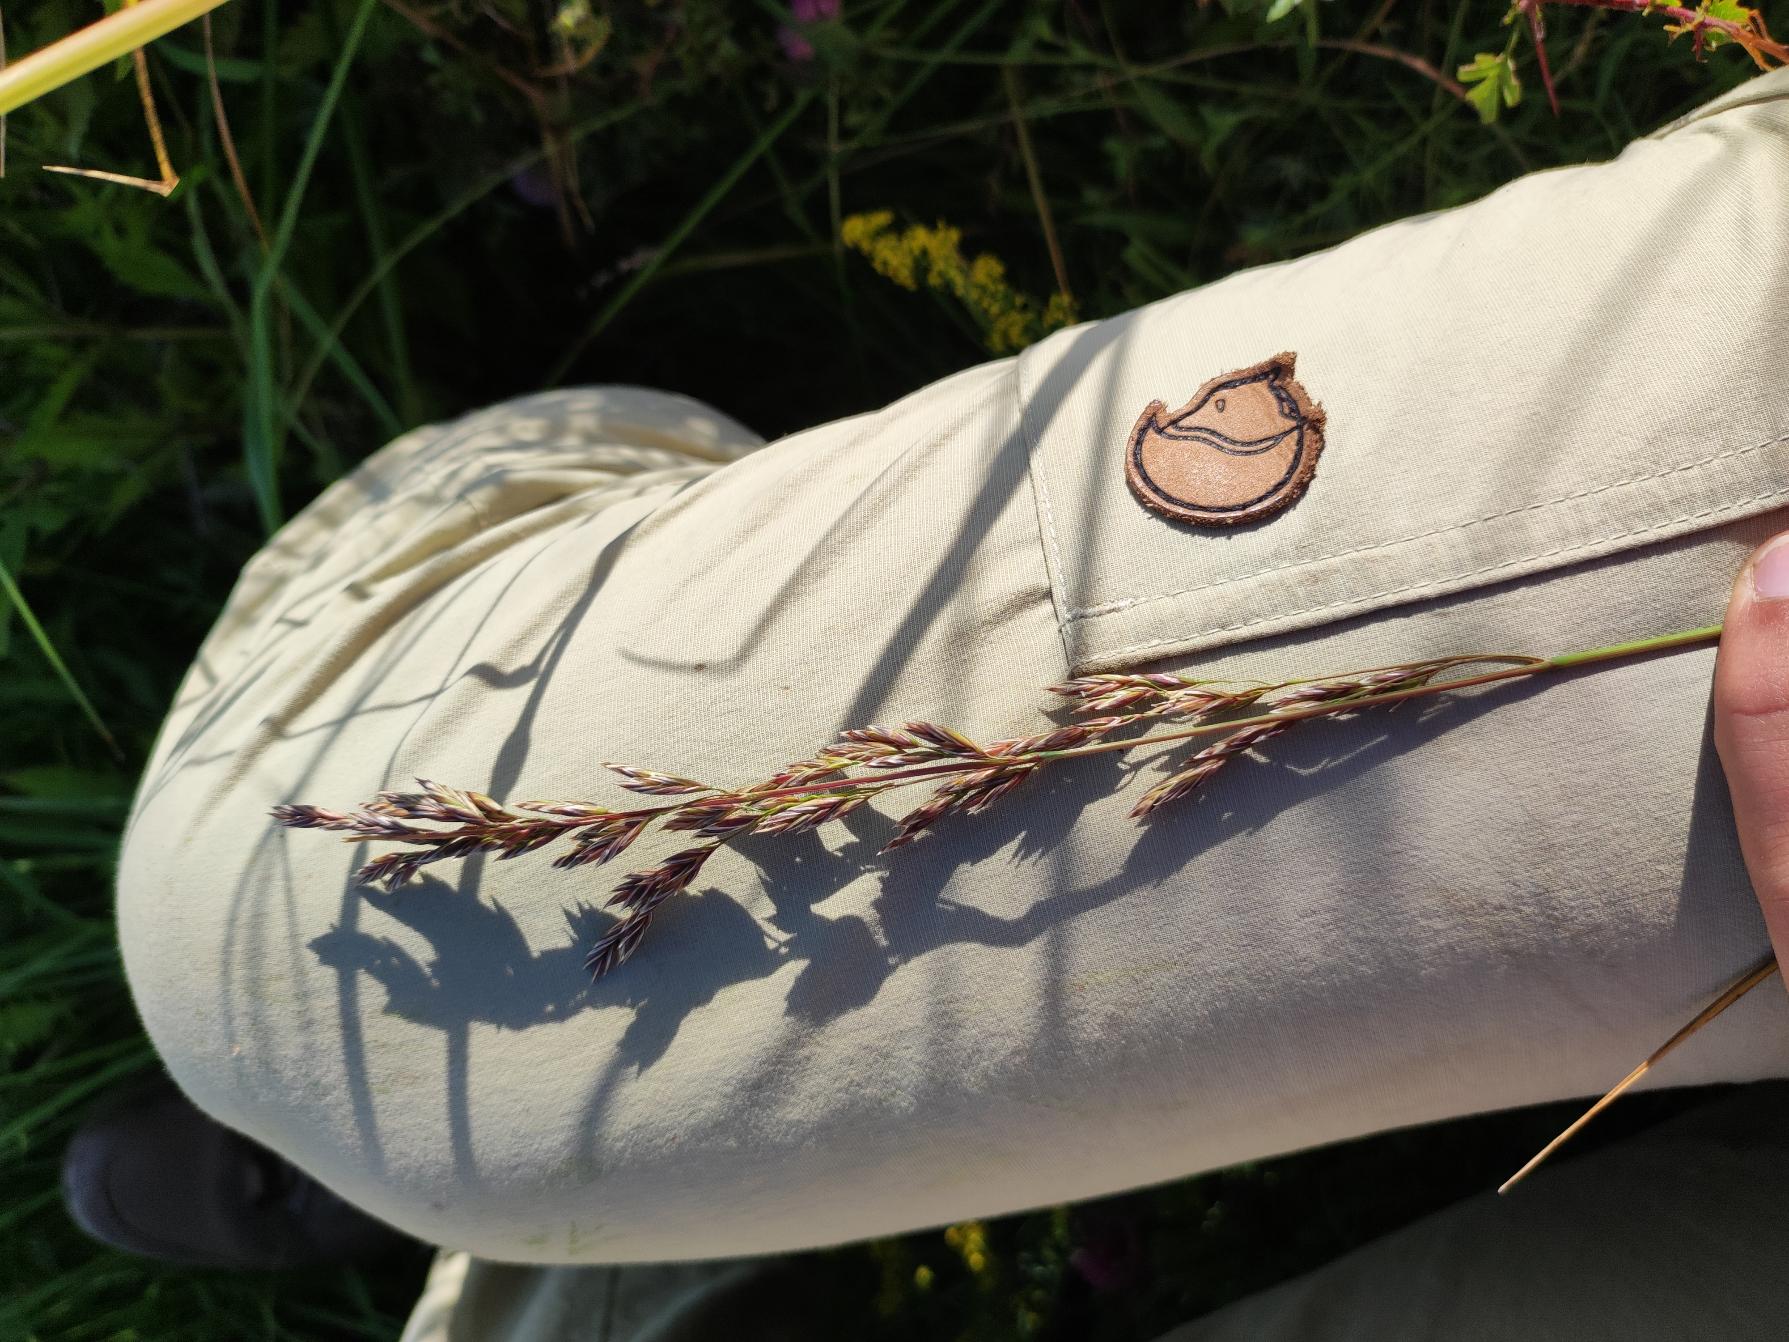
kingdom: Plantae
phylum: Tracheophyta
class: Liliopsida
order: Poales
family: Poaceae
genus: Lolium
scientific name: Lolium arundinaceum
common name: Strand-svingel
